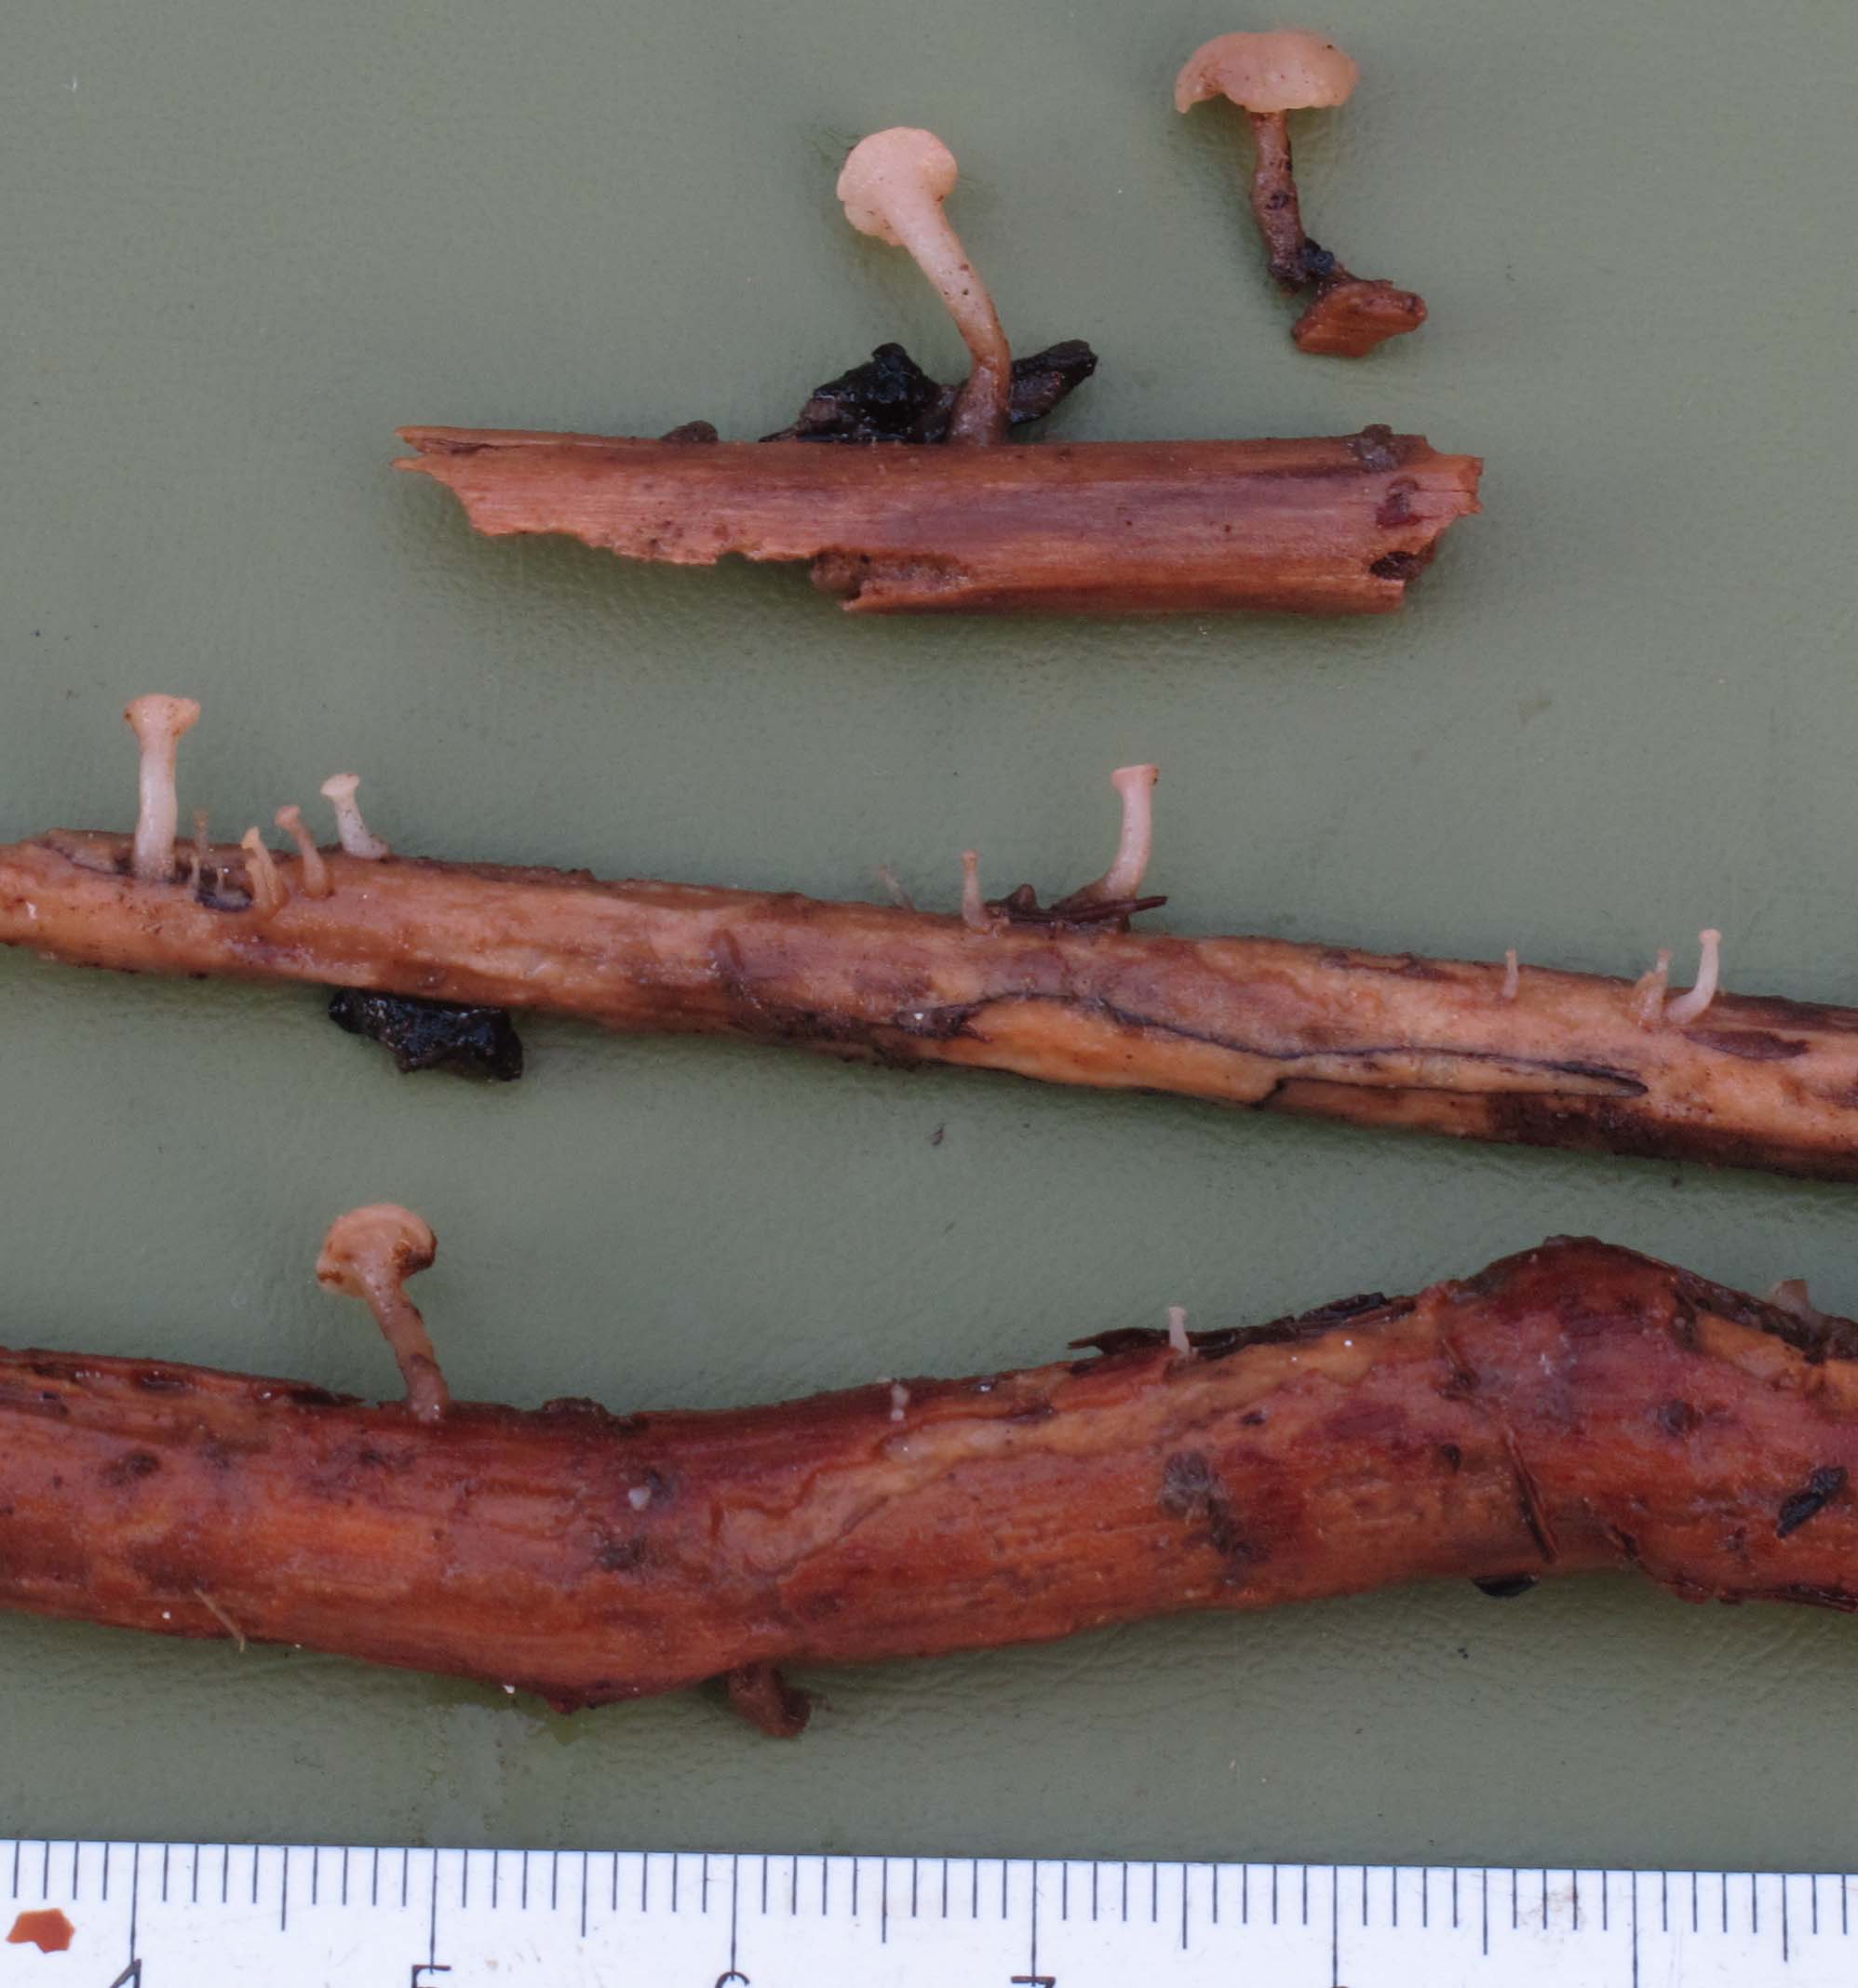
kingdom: Fungi
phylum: Ascomycota
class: Leotiomycetes
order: Helotiales
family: Tricladiaceae
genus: Cudoniella
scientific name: Cudoniella clavus
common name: stor dyndskive
